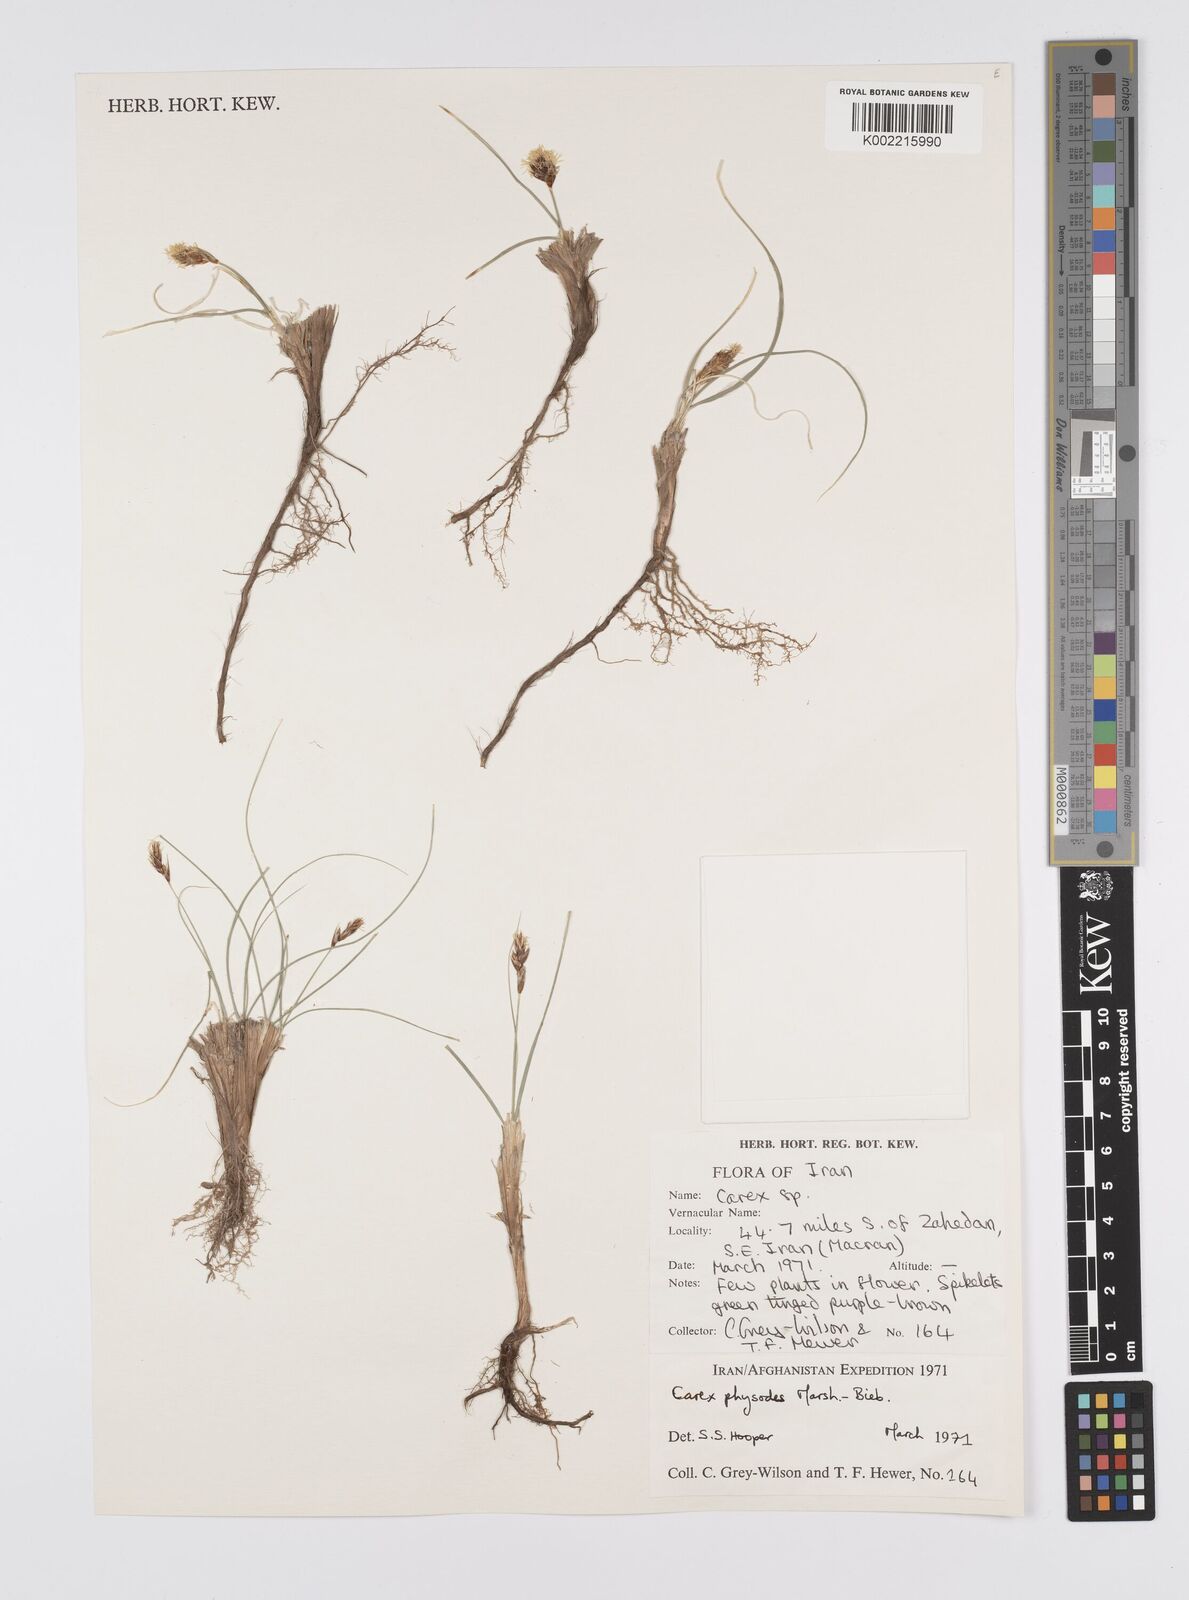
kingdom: Plantae
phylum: Tracheophyta
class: Liliopsida
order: Poales
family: Cyperaceae
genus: Carex
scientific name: Carex physodes
